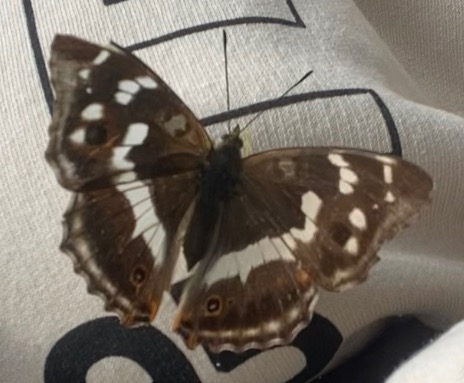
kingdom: Animalia
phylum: Arthropoda
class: Insecta
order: Lepidoptera
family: Nymphalidae
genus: Apatura
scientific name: Apatura iris
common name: Iris
